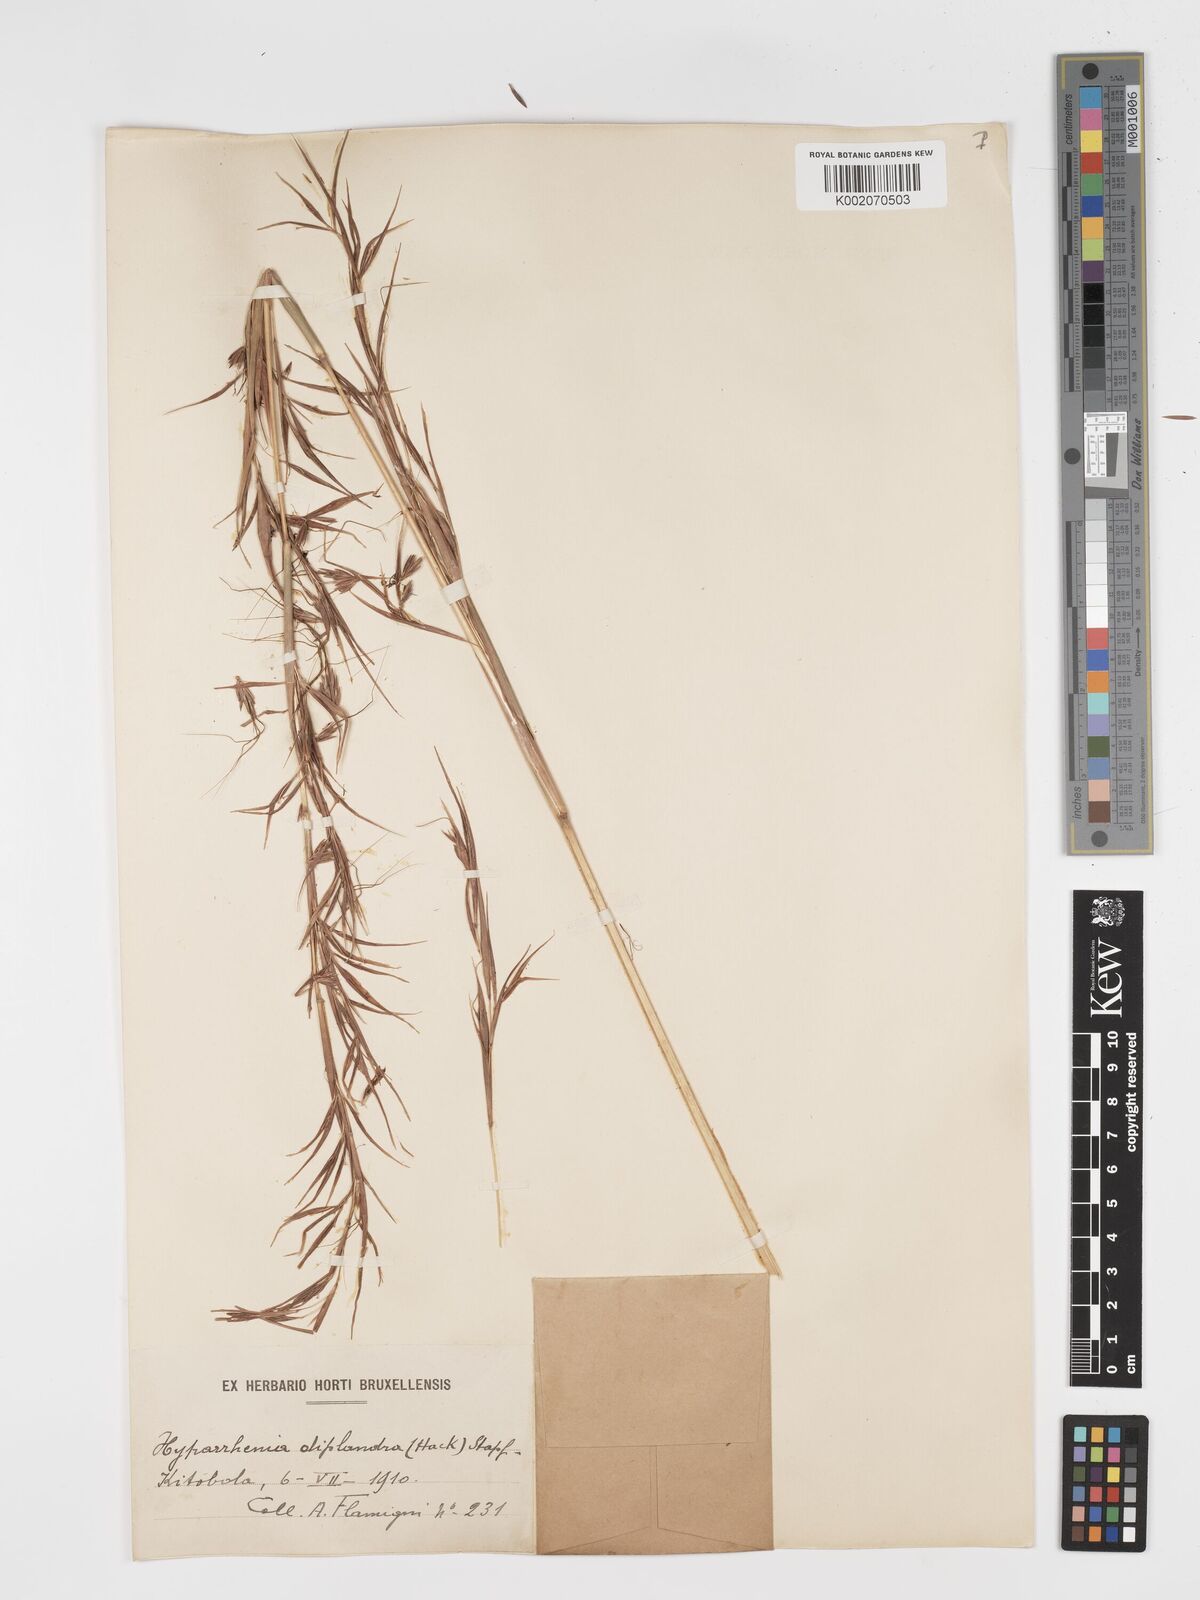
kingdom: Plantae
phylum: Tracheophyta
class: Liliopsida
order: Poales
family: Poaceae
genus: Hyparrhenia
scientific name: Hyparrhenia diplandra
